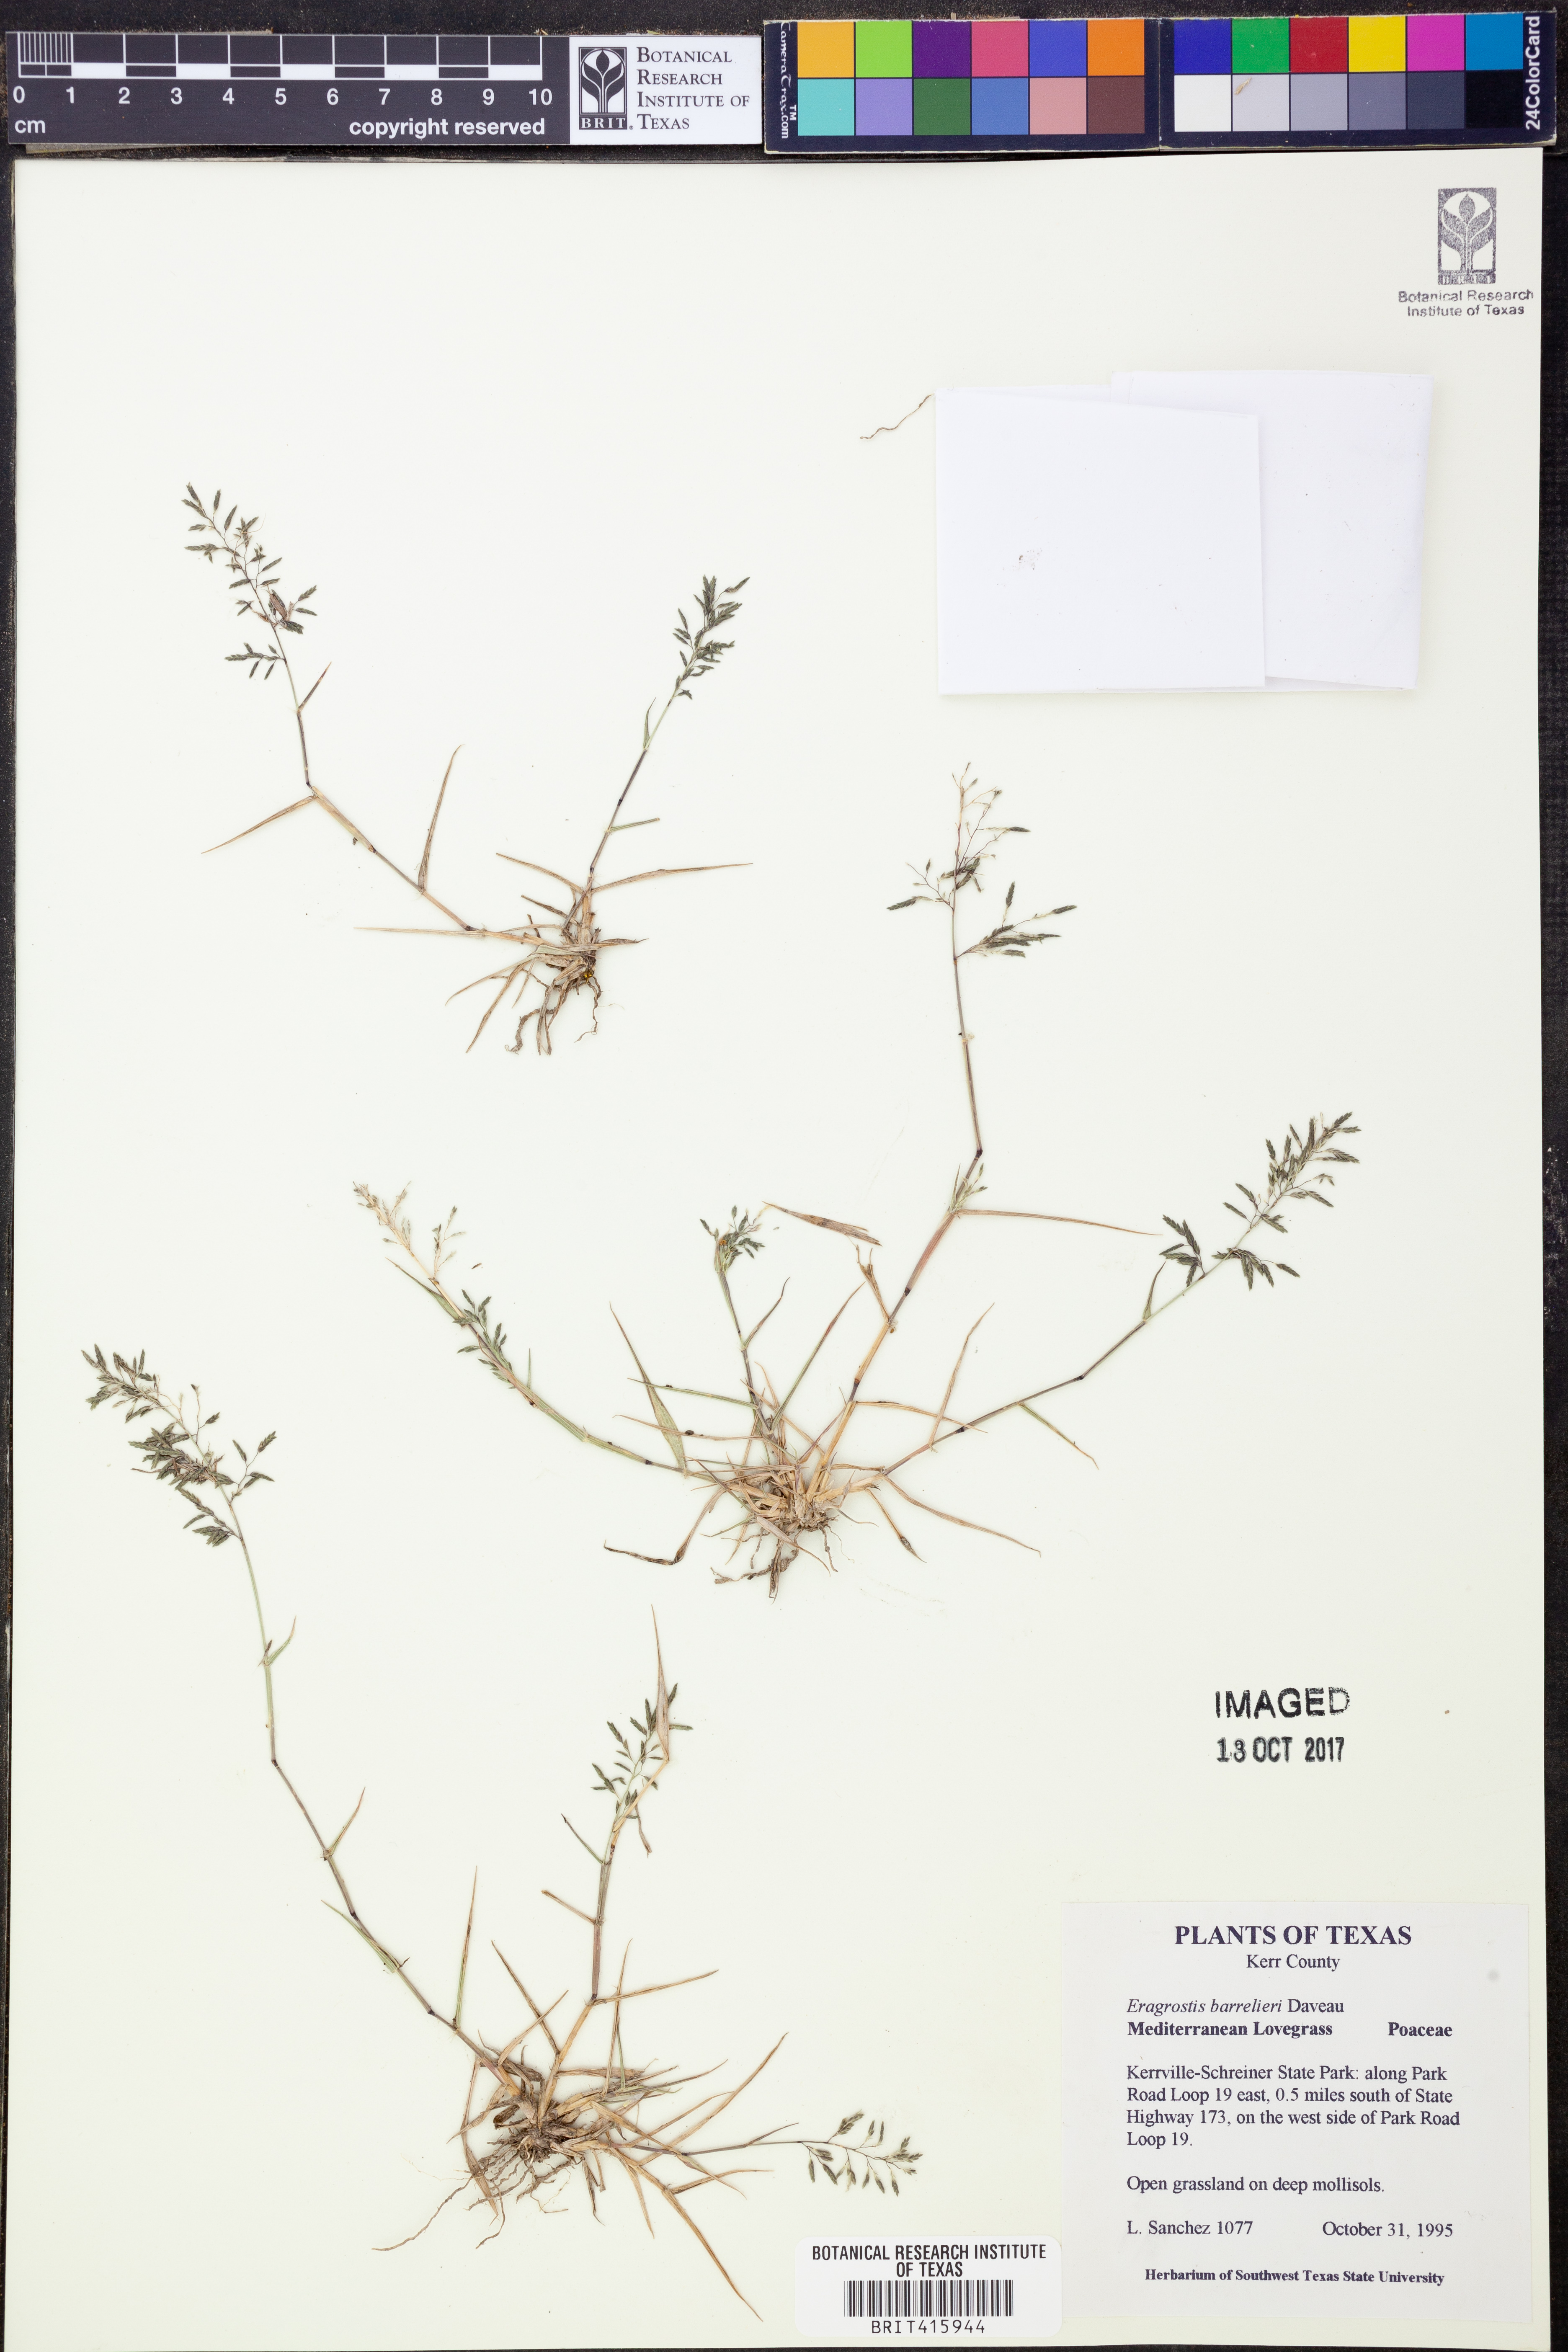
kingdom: Plantae
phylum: Tracheophyta
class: Liliopsida
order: Poales
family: Poaceae
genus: Eragrostis
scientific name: Eragrostis barrelieri
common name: Mediterranean lovegrass
